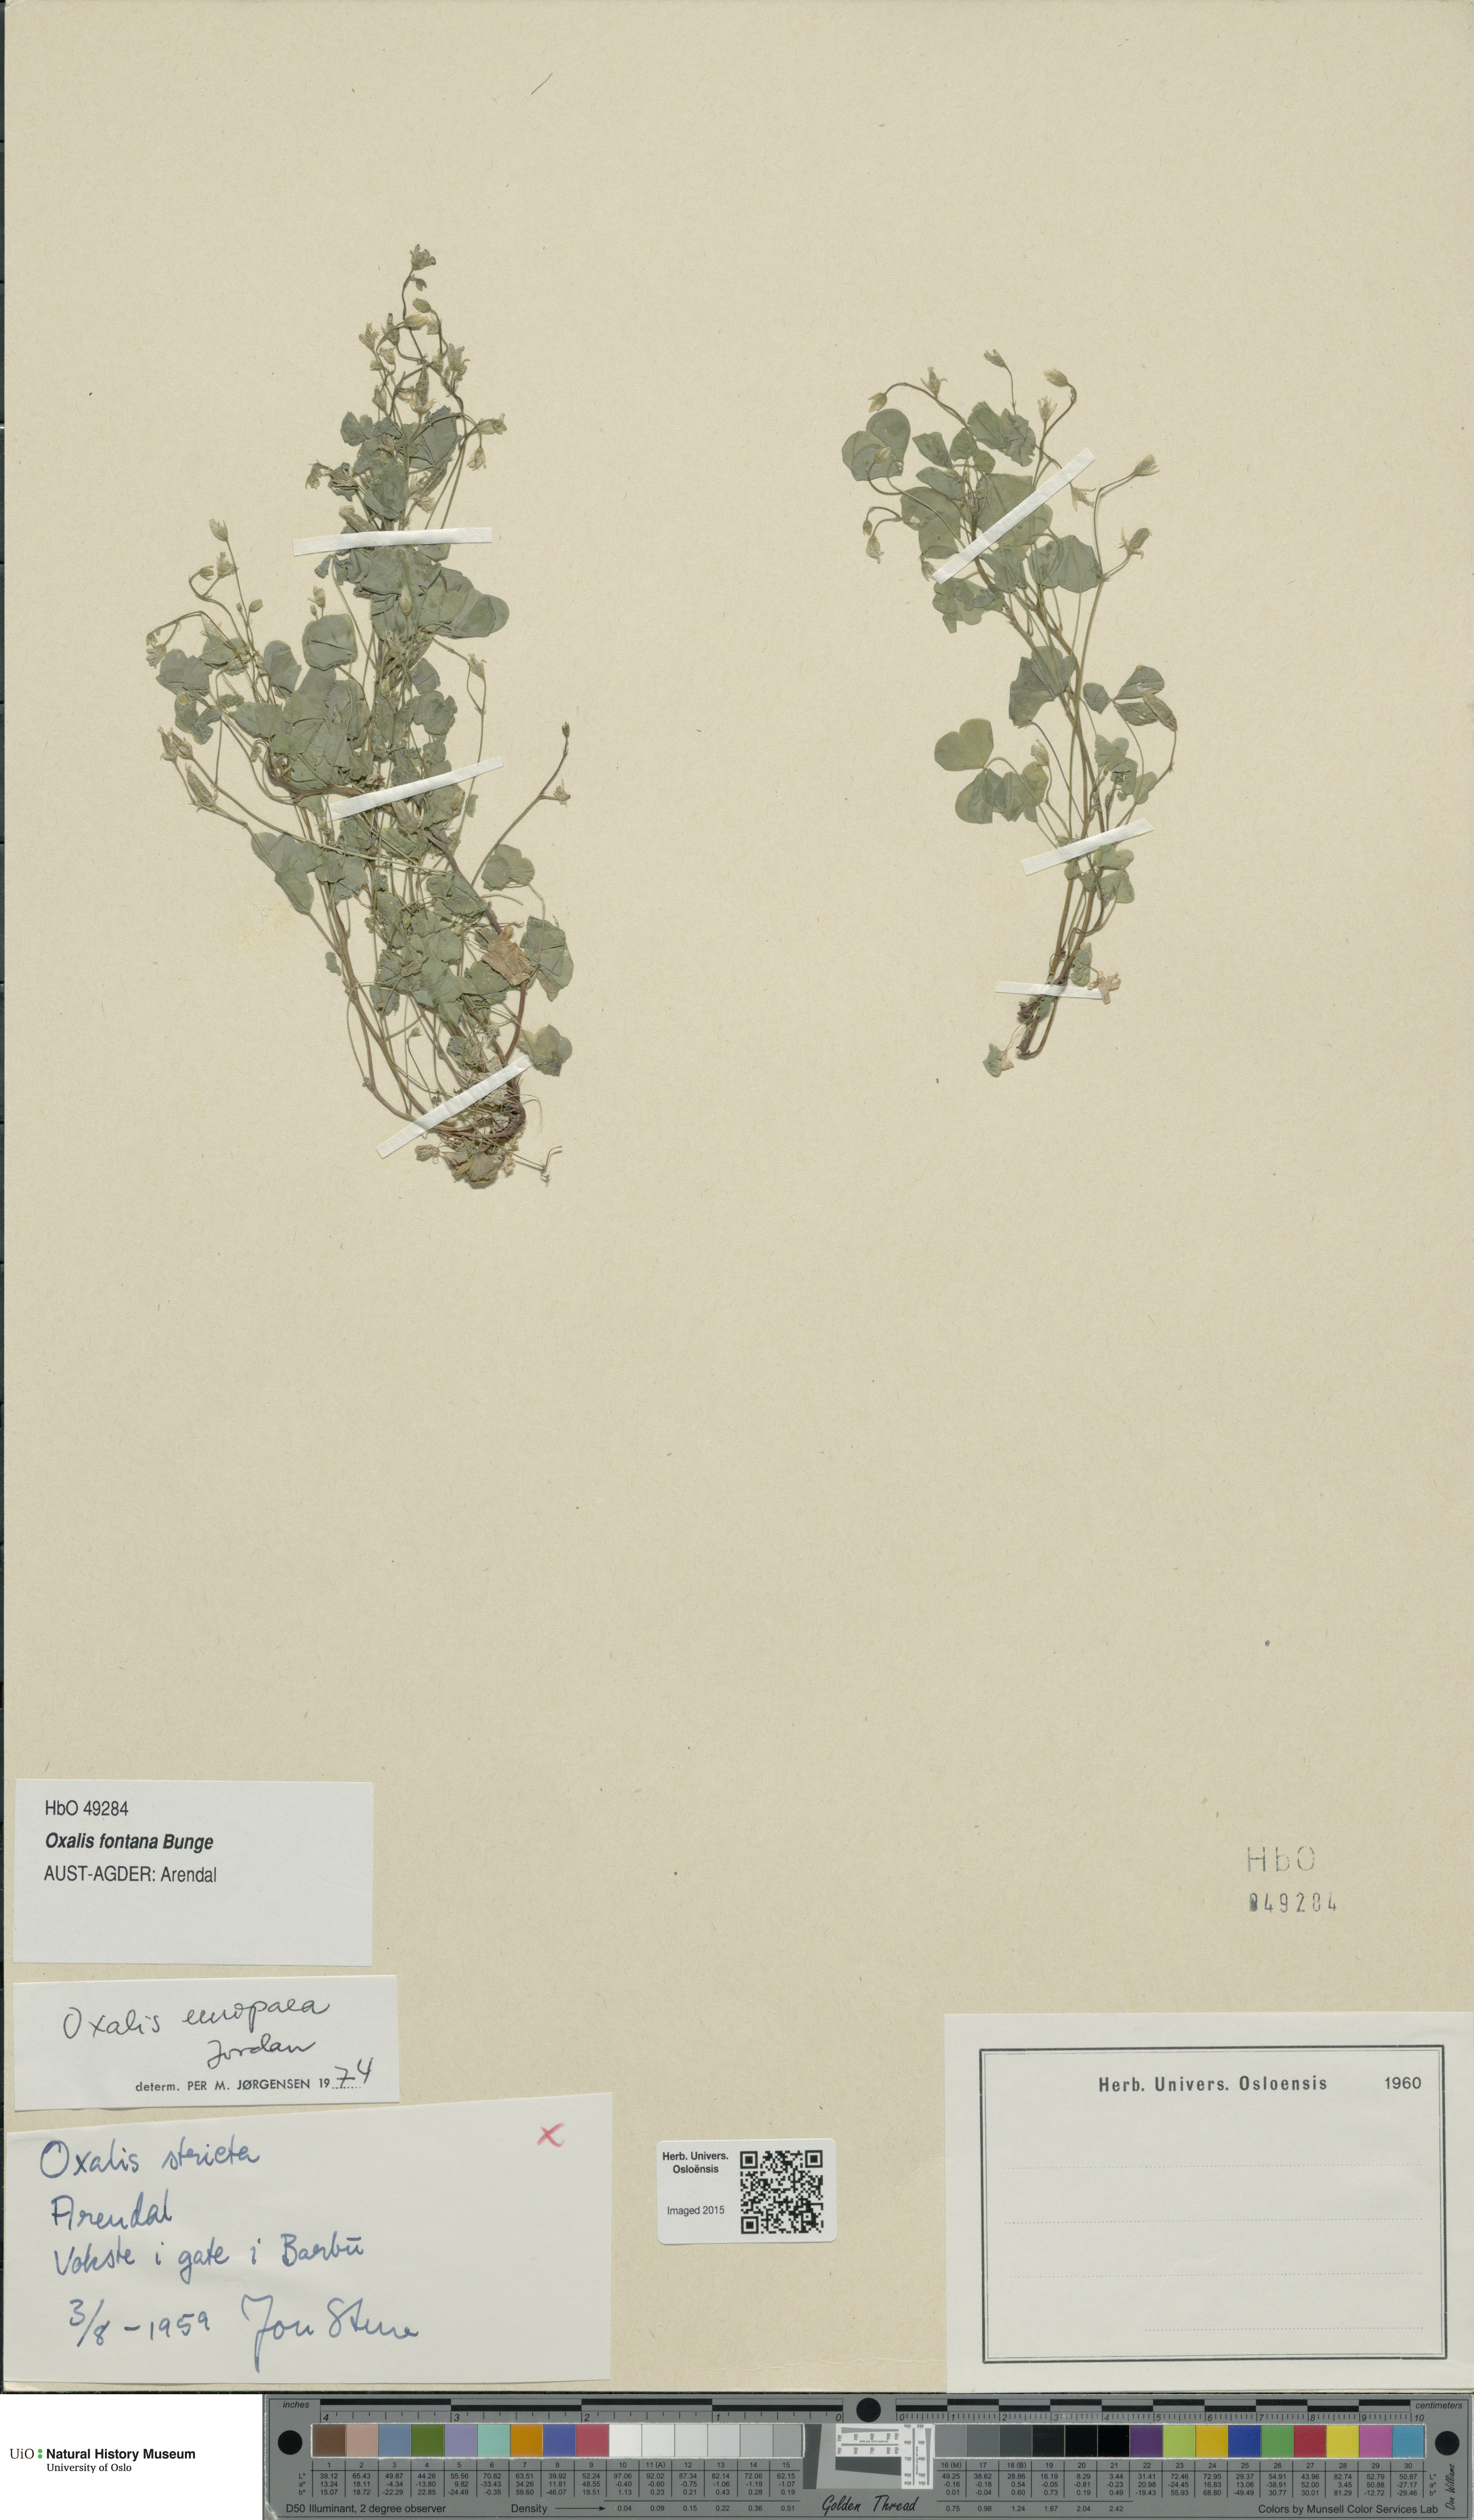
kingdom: Plantae
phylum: Tracheophyta
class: Magnoliopsida
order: Oxalidales
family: Oxalidaceae
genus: Oxalis
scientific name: Oxalis stricta
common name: Upright yellow-sorrel
